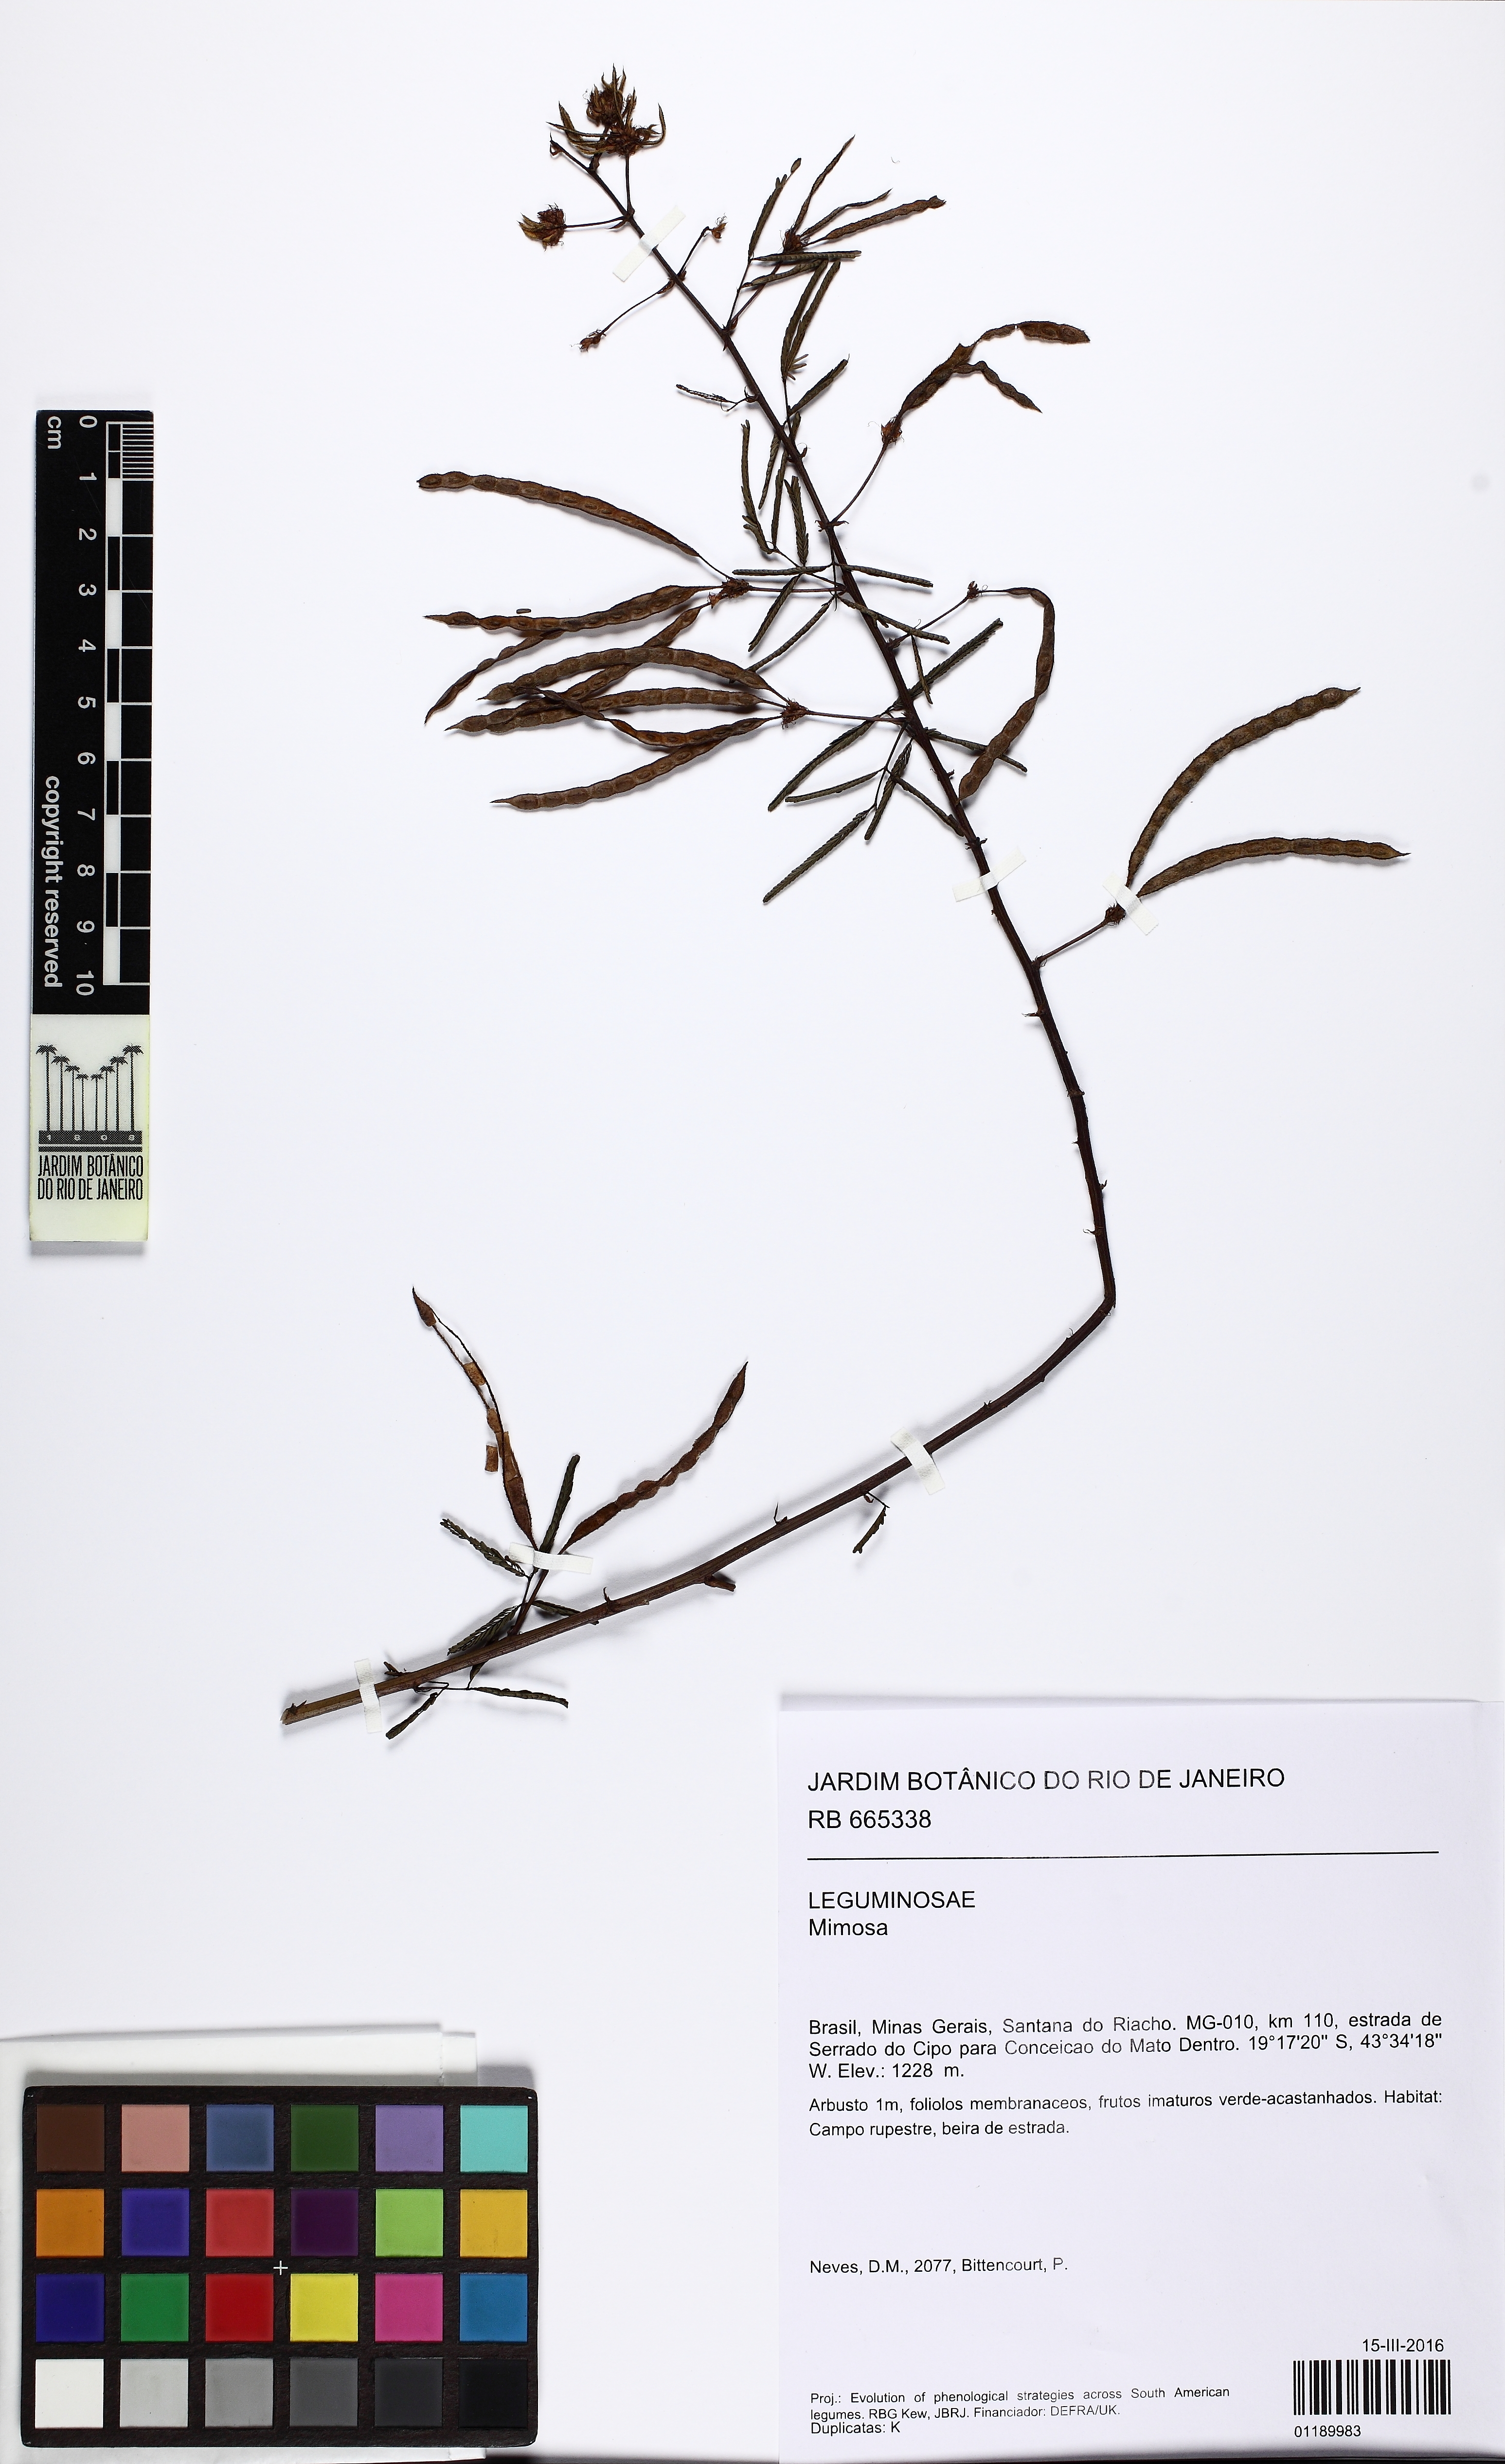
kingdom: Plantae
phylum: Tracheophyta
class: Magnoliopsida
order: Fabales
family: Fabaceae
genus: Mimosa
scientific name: Mimosa
